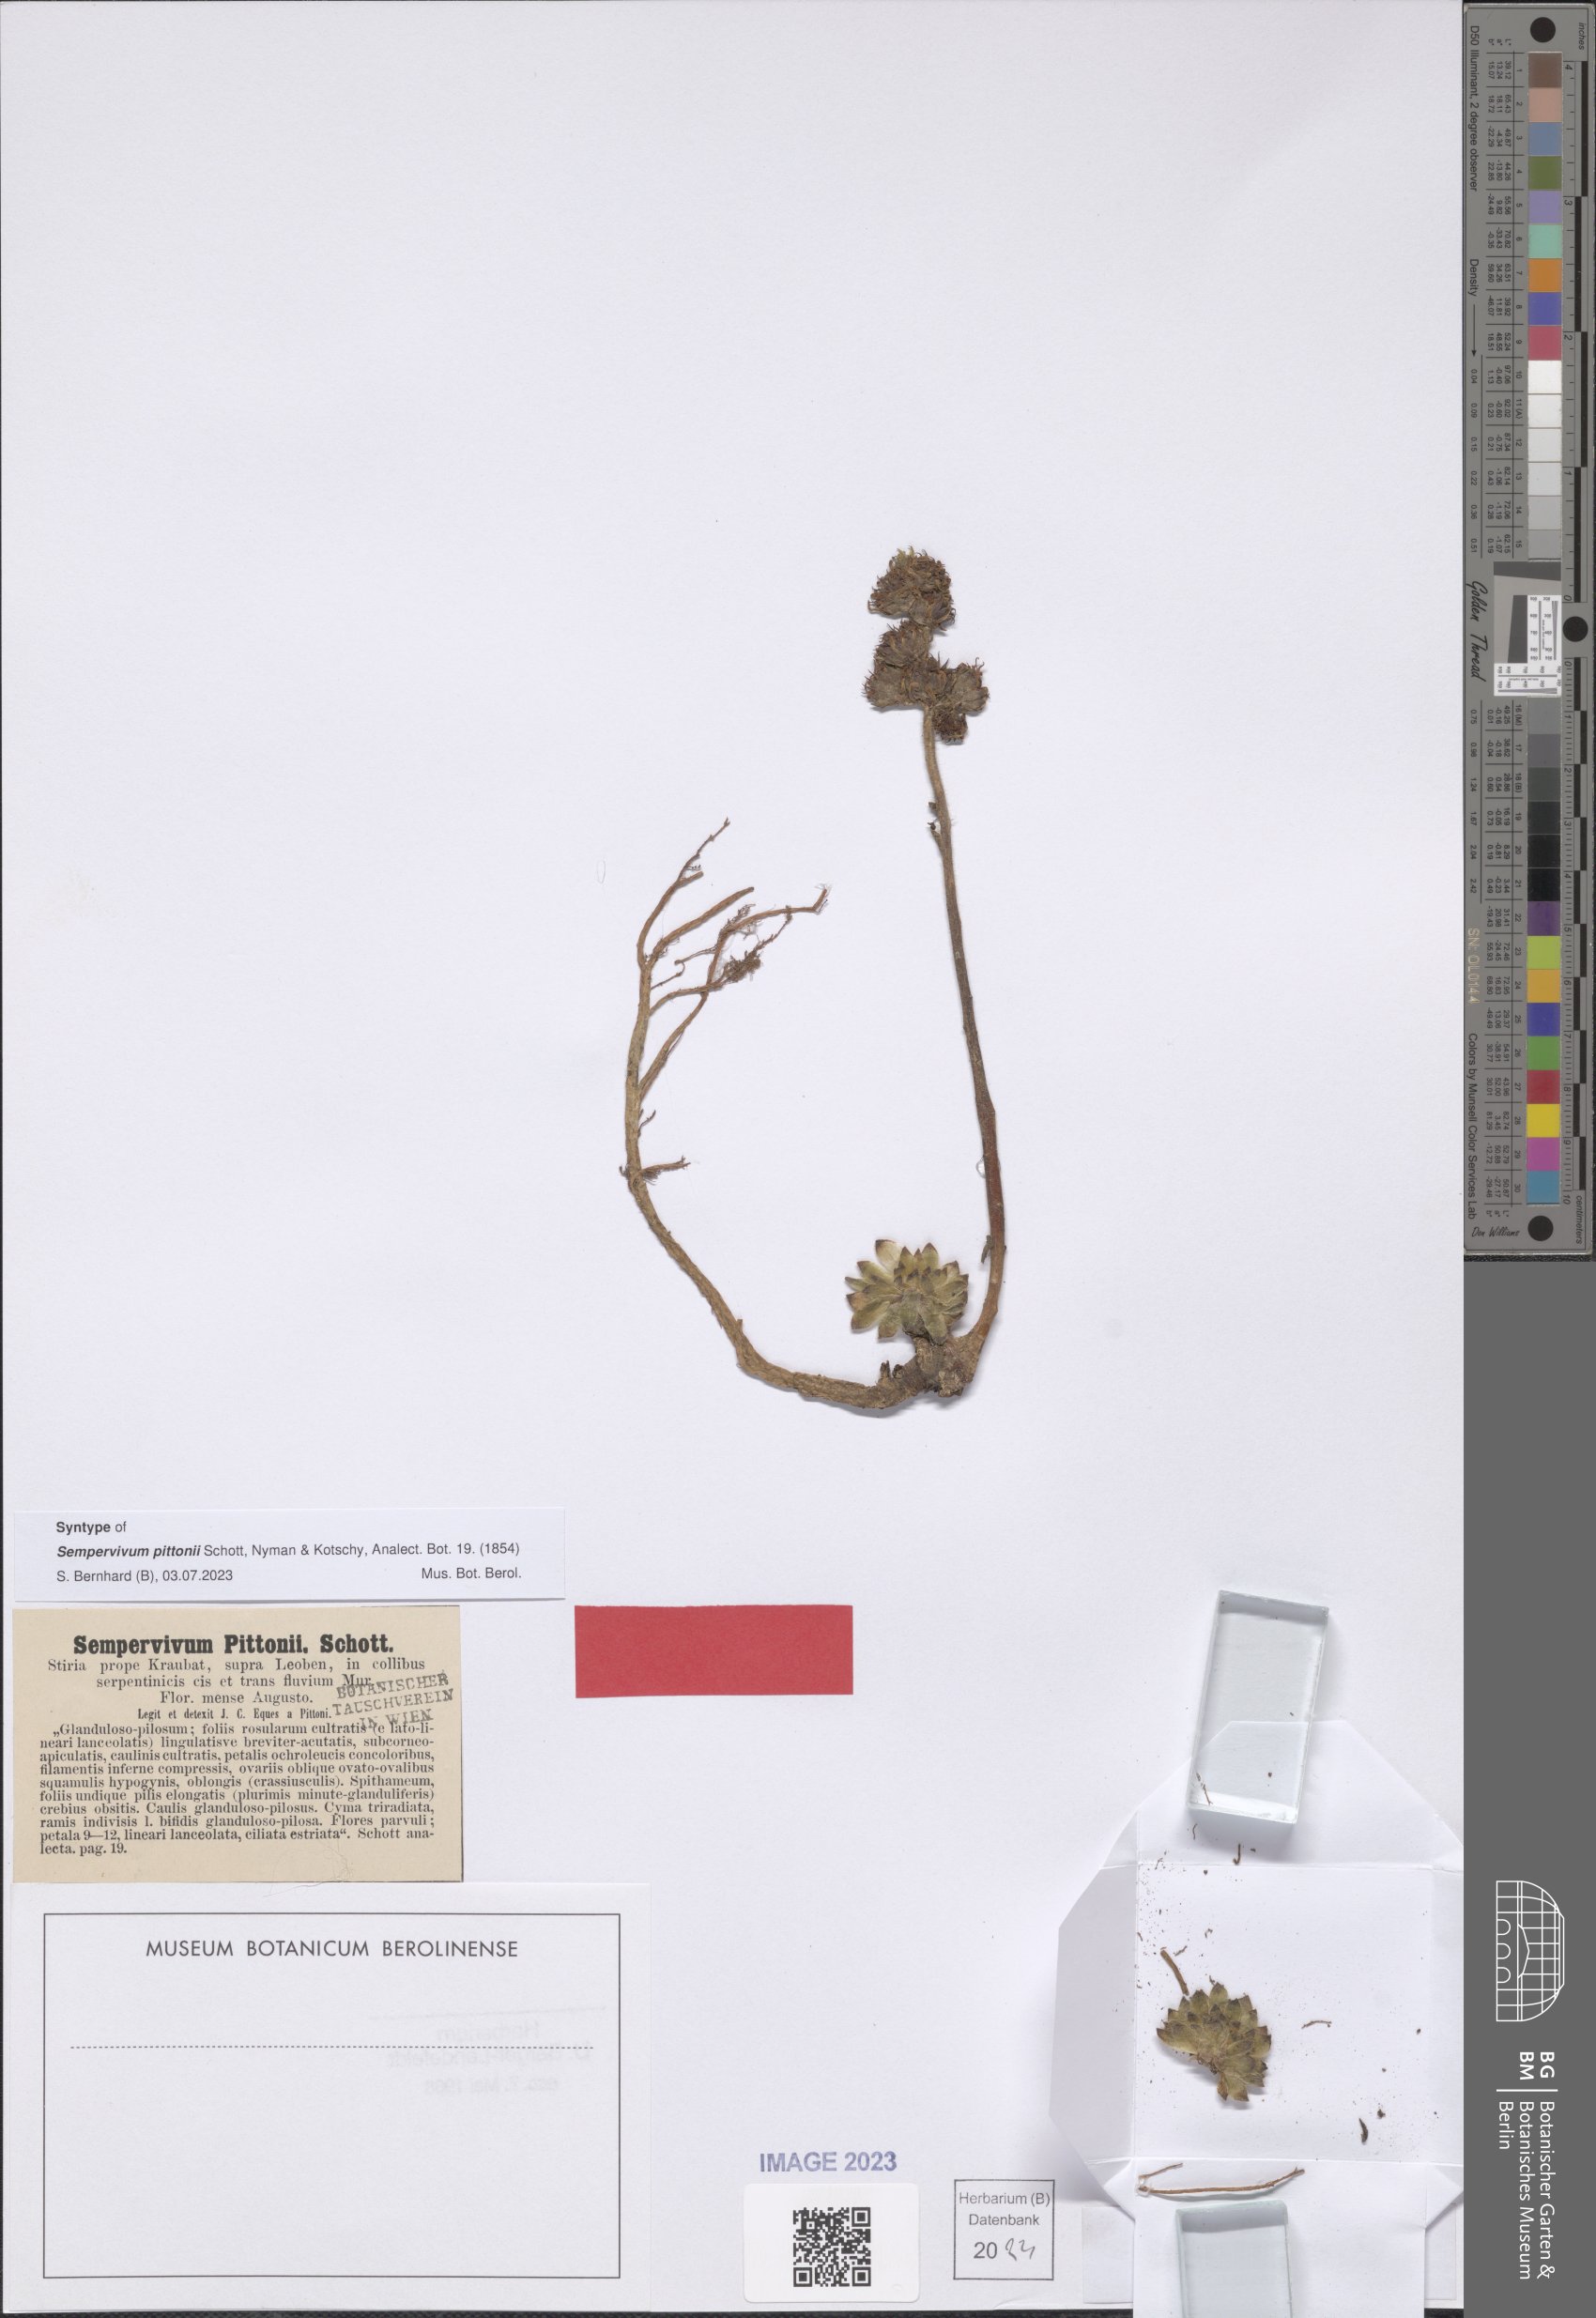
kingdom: Plantae
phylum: Tracheophyta
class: Magnoliopsida
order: Saxifragales
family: Crassulaceae
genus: Sempervivum
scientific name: Sempervivum pittonii
